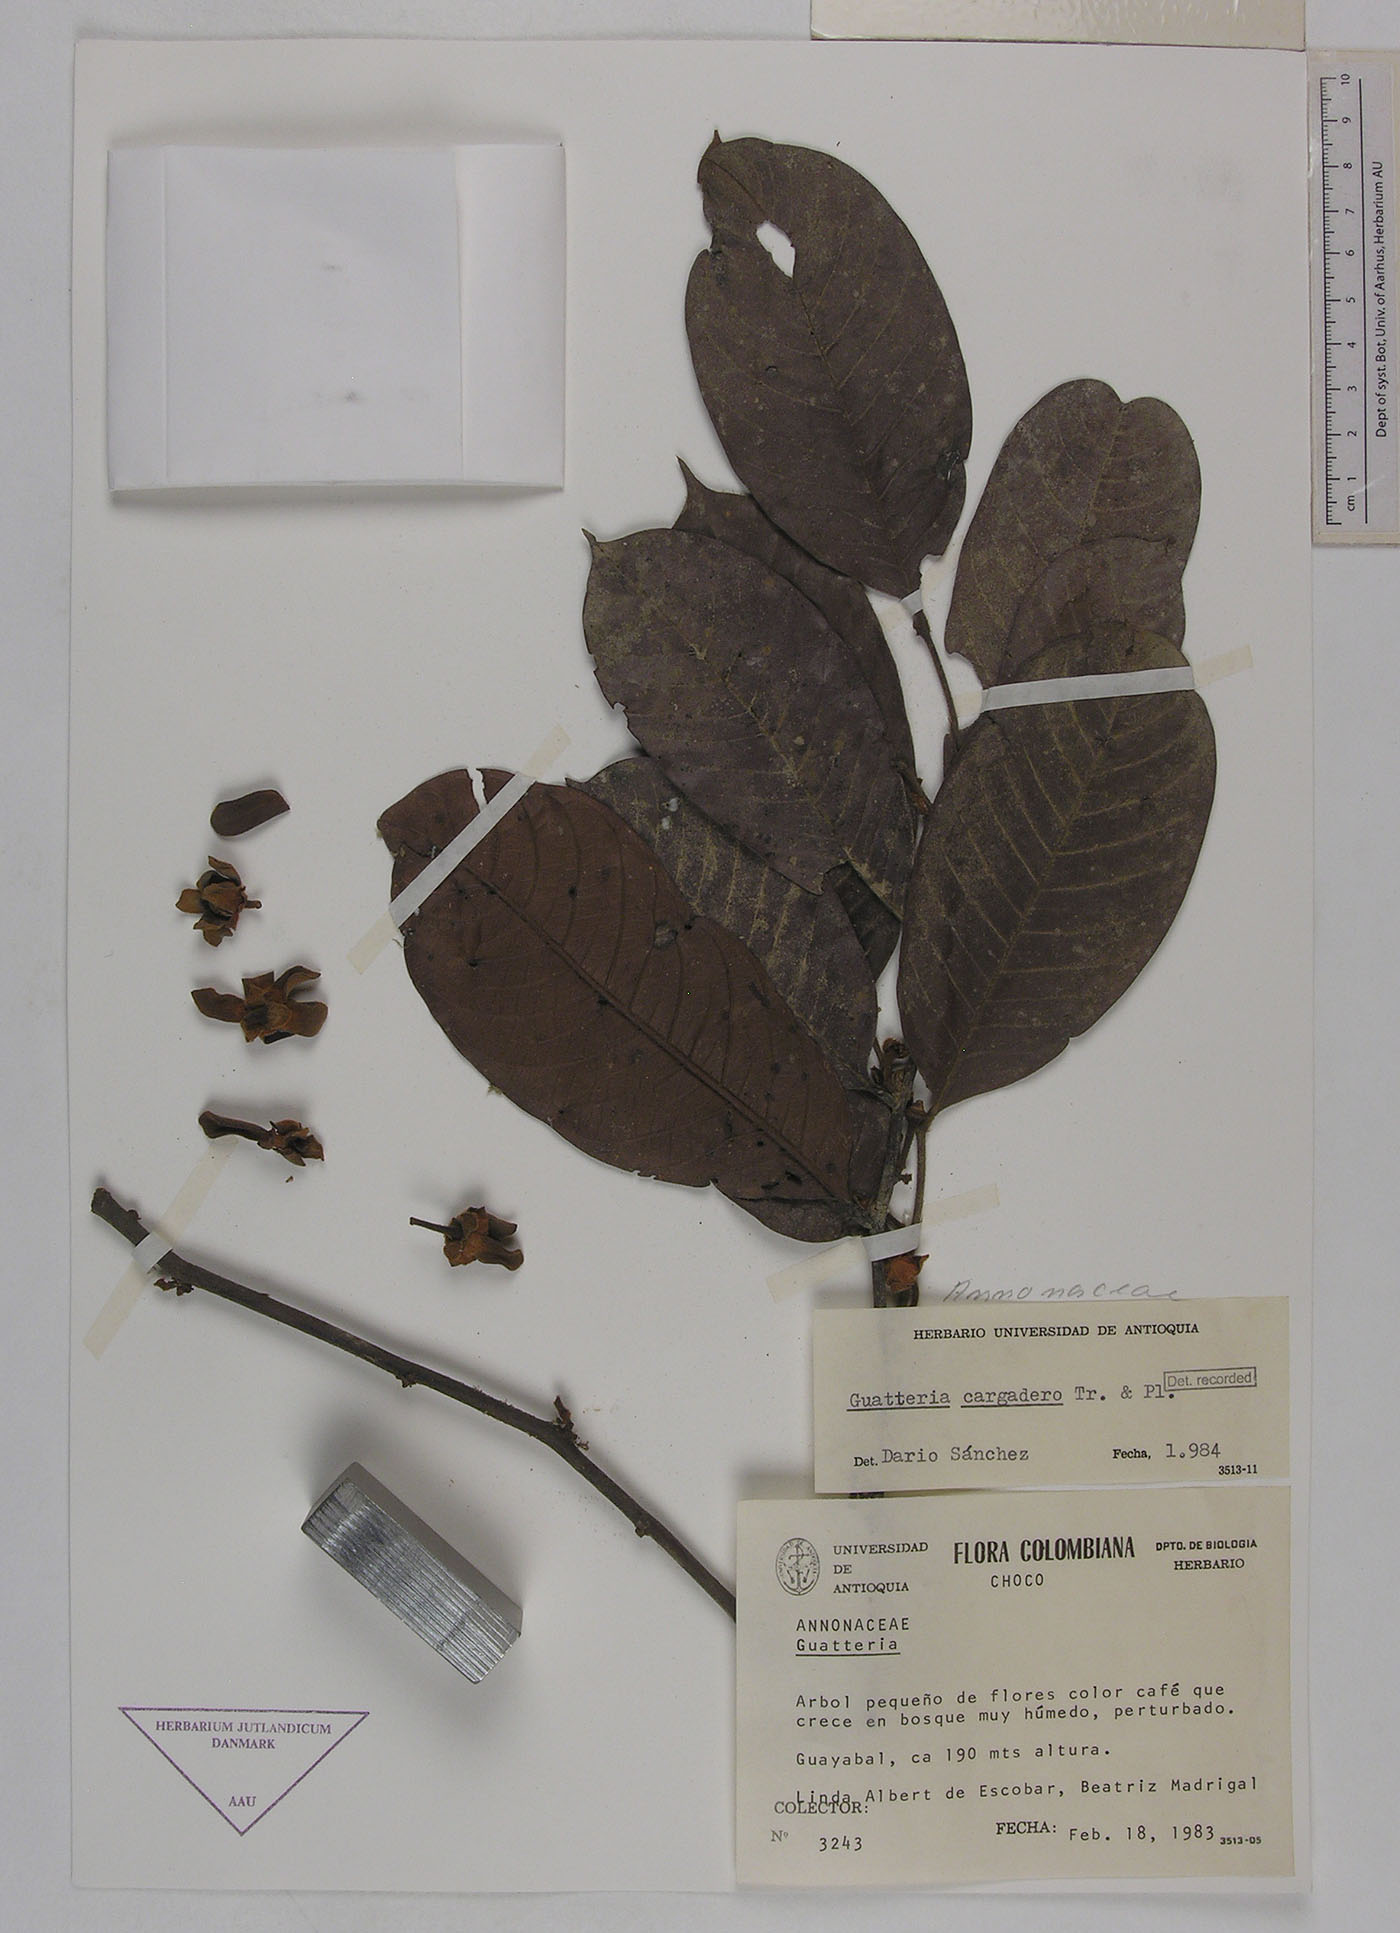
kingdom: Plantae
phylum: Tracheophyta
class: Magnoliopsida
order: Magnoliales
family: Annonaceae
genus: Guatteria
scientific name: Guatteria punctata
